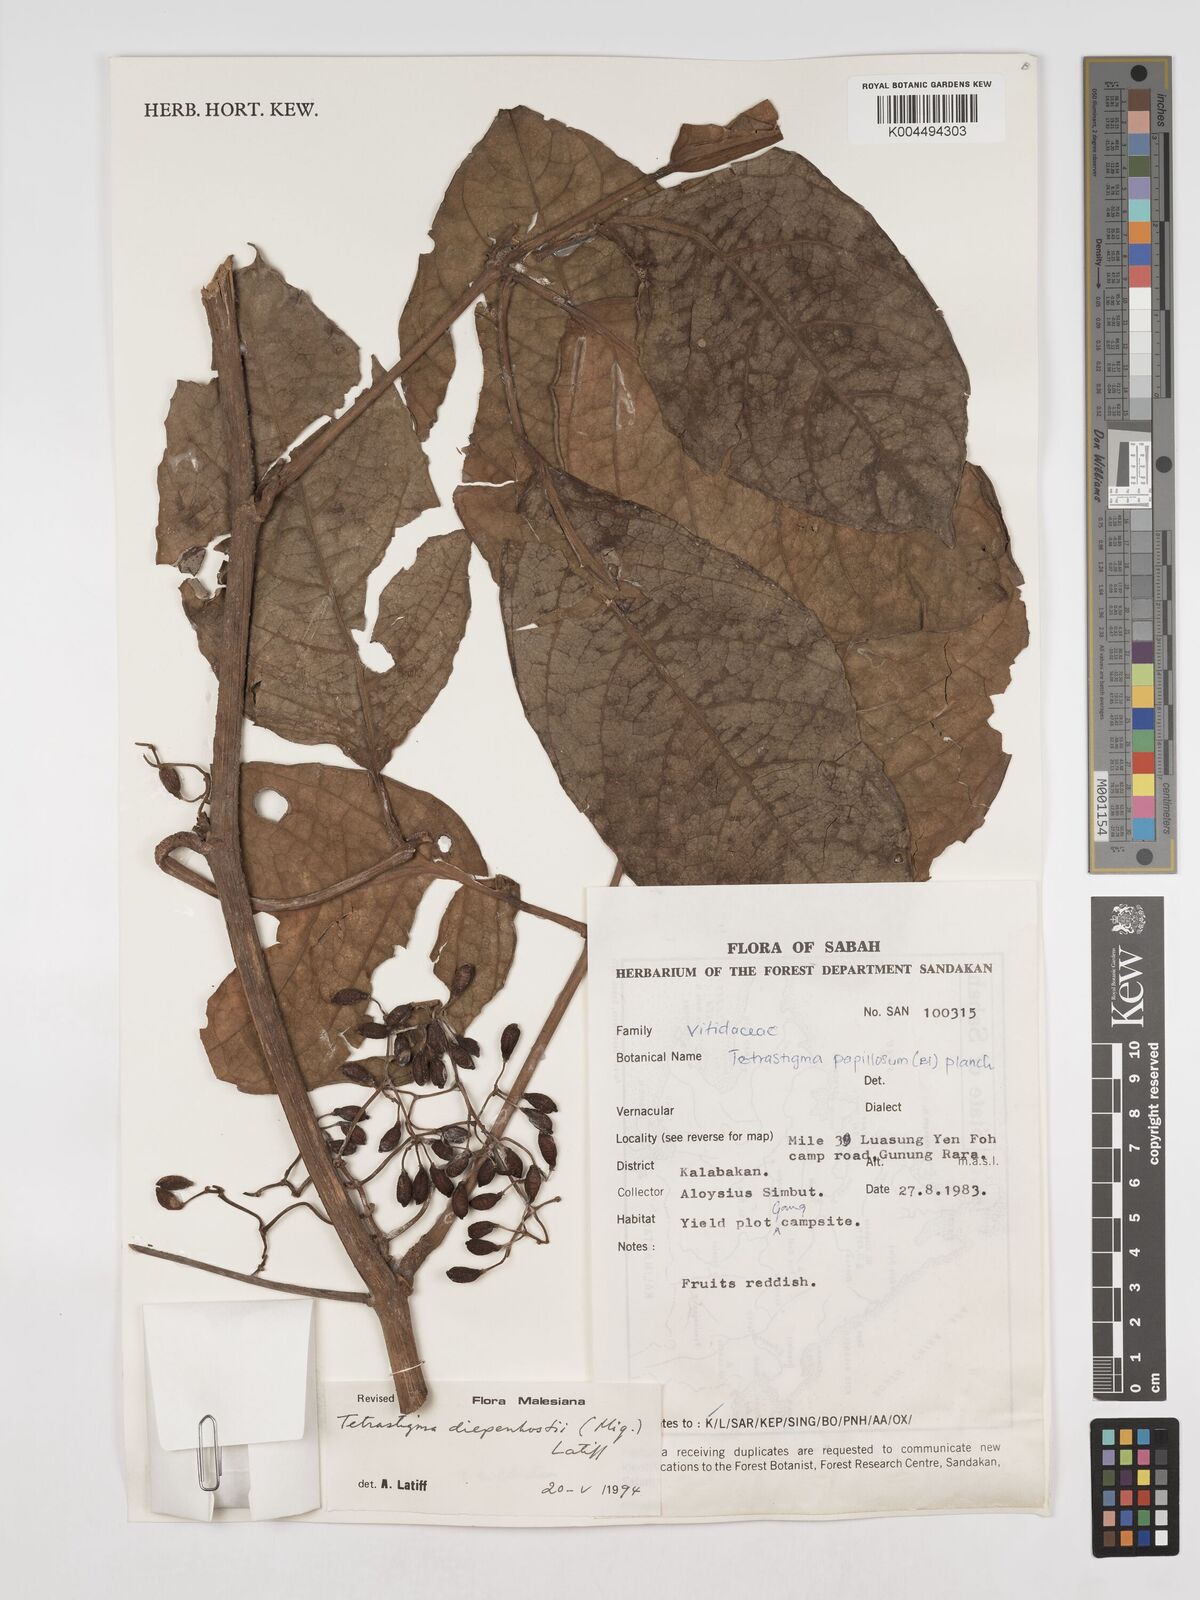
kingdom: Plantae
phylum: Tracheophyta
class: Magnoliopsida
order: Vitales
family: Vitaceae
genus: Tetrastigma
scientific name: Tetrastigma diepenhorstii
